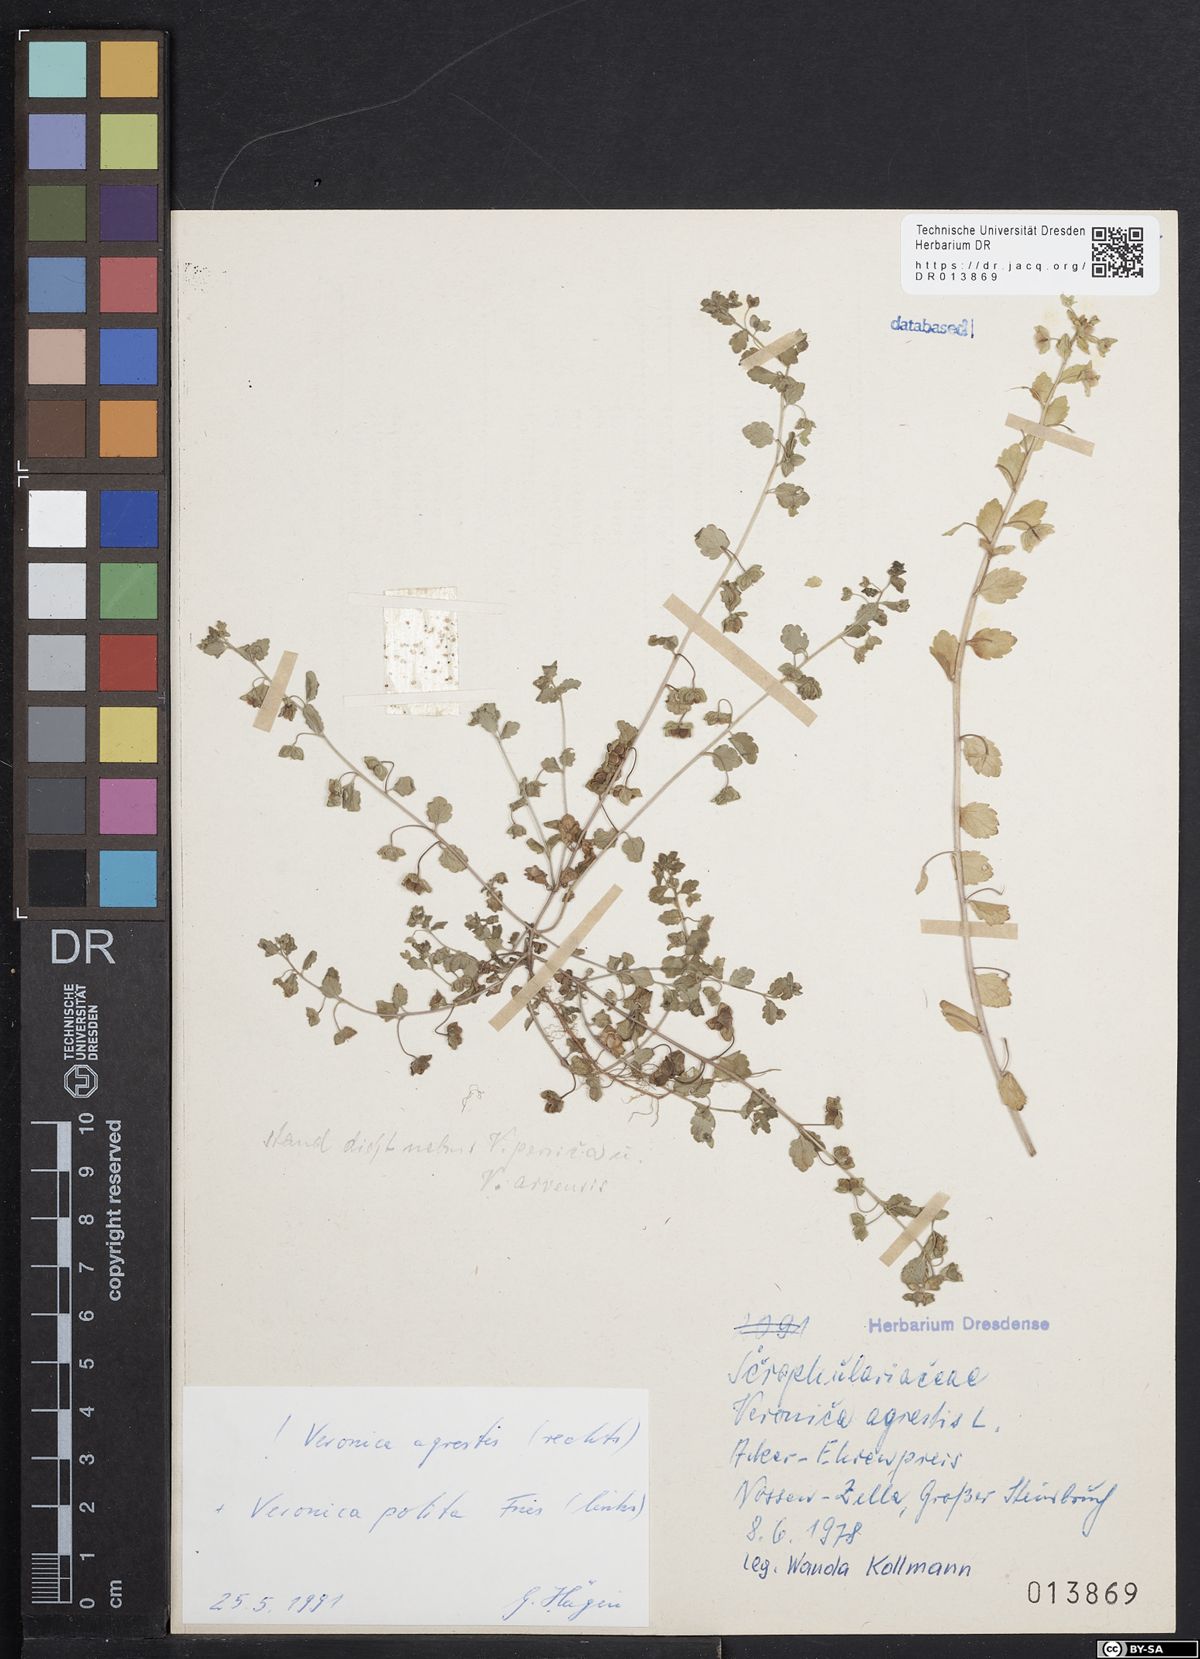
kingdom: Plantae
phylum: Tracheophyta
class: Magnoliopsida
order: Lamiales
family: Plantaginaceae
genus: Veronica
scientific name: Veronica polita
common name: Grey field-speedwell
